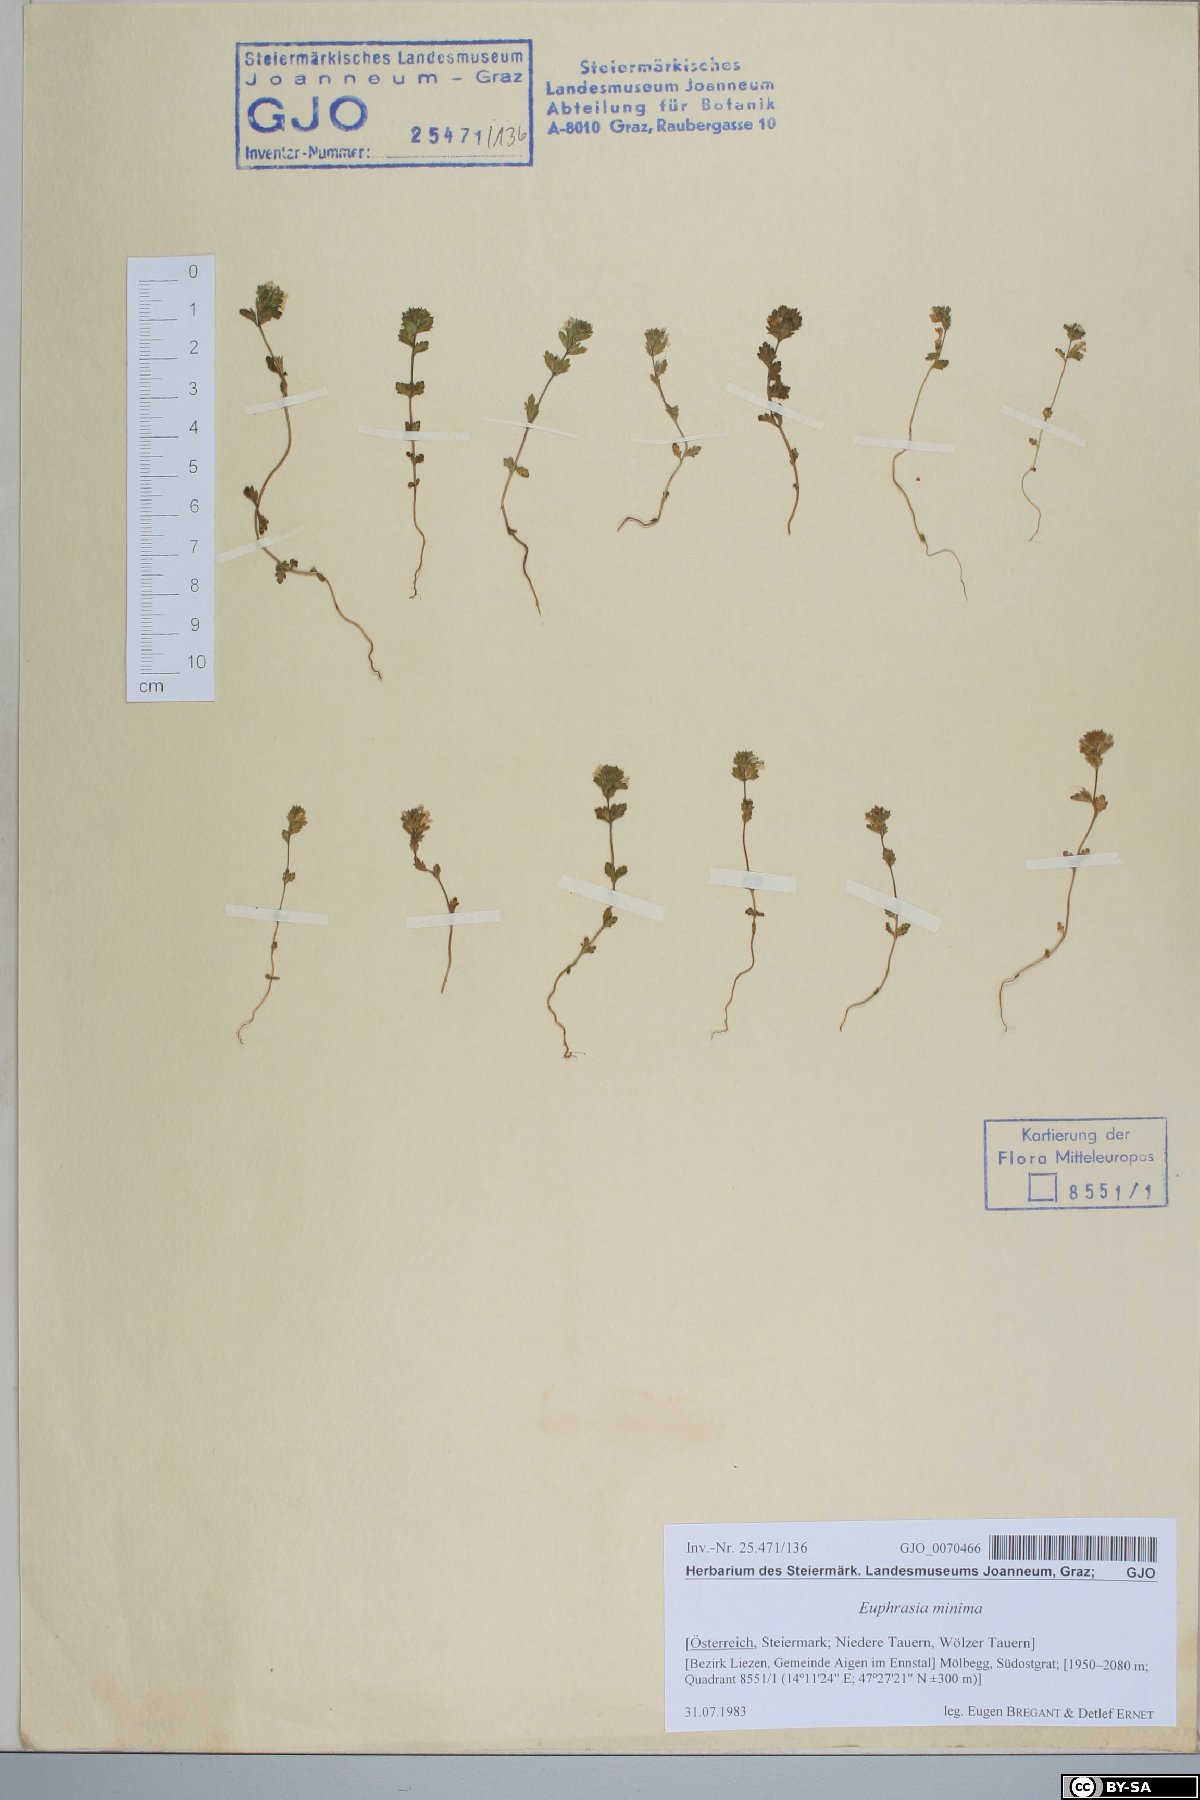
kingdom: Plantae
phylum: Tracheophyta
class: Magnoliopsida
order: Lamiales
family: Orobanchaceae
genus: Euphrasia
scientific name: Euphrasia minima
